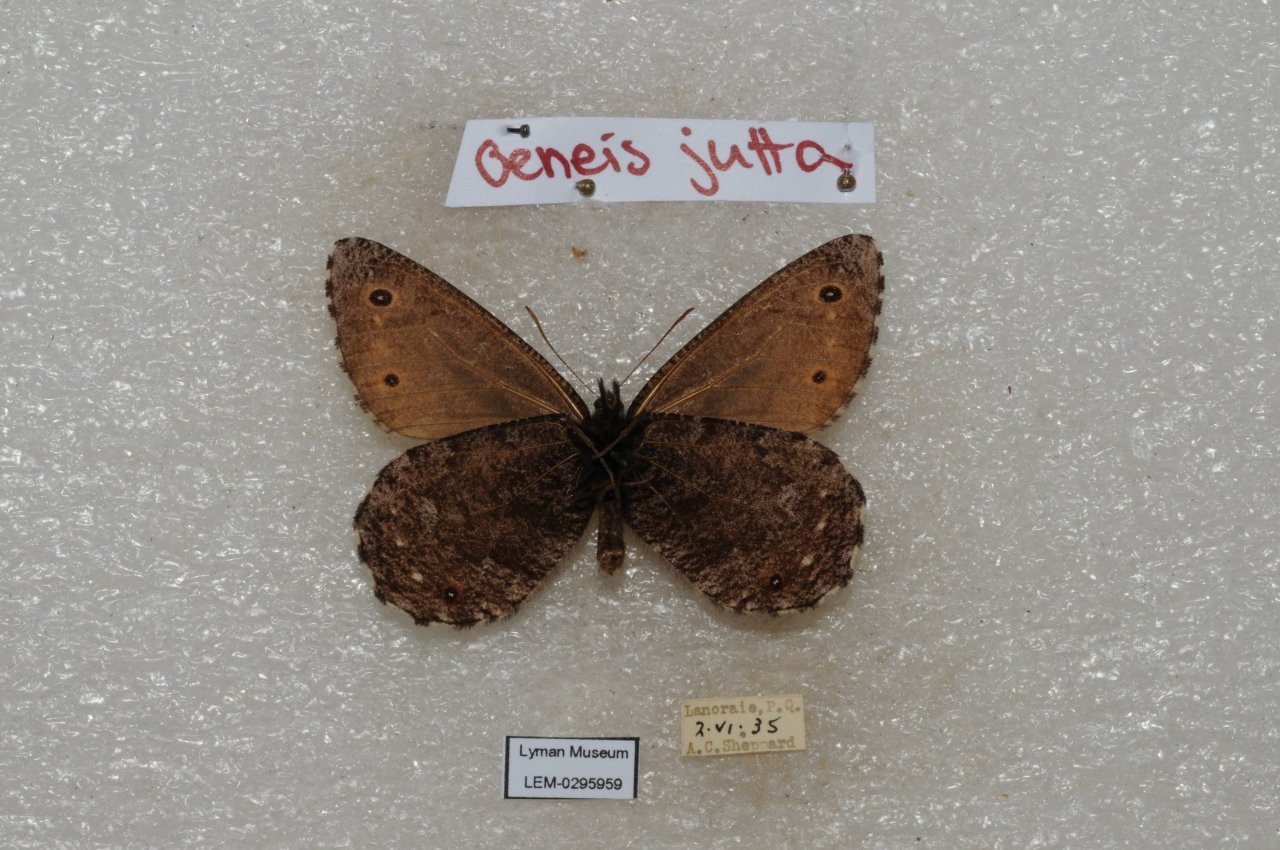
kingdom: Animalia
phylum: Arthropoda
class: Insecta
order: Lepidoptera
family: Nymphalidae
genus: Oeneis
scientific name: Oeneis jutta
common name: Jutta Arctic
